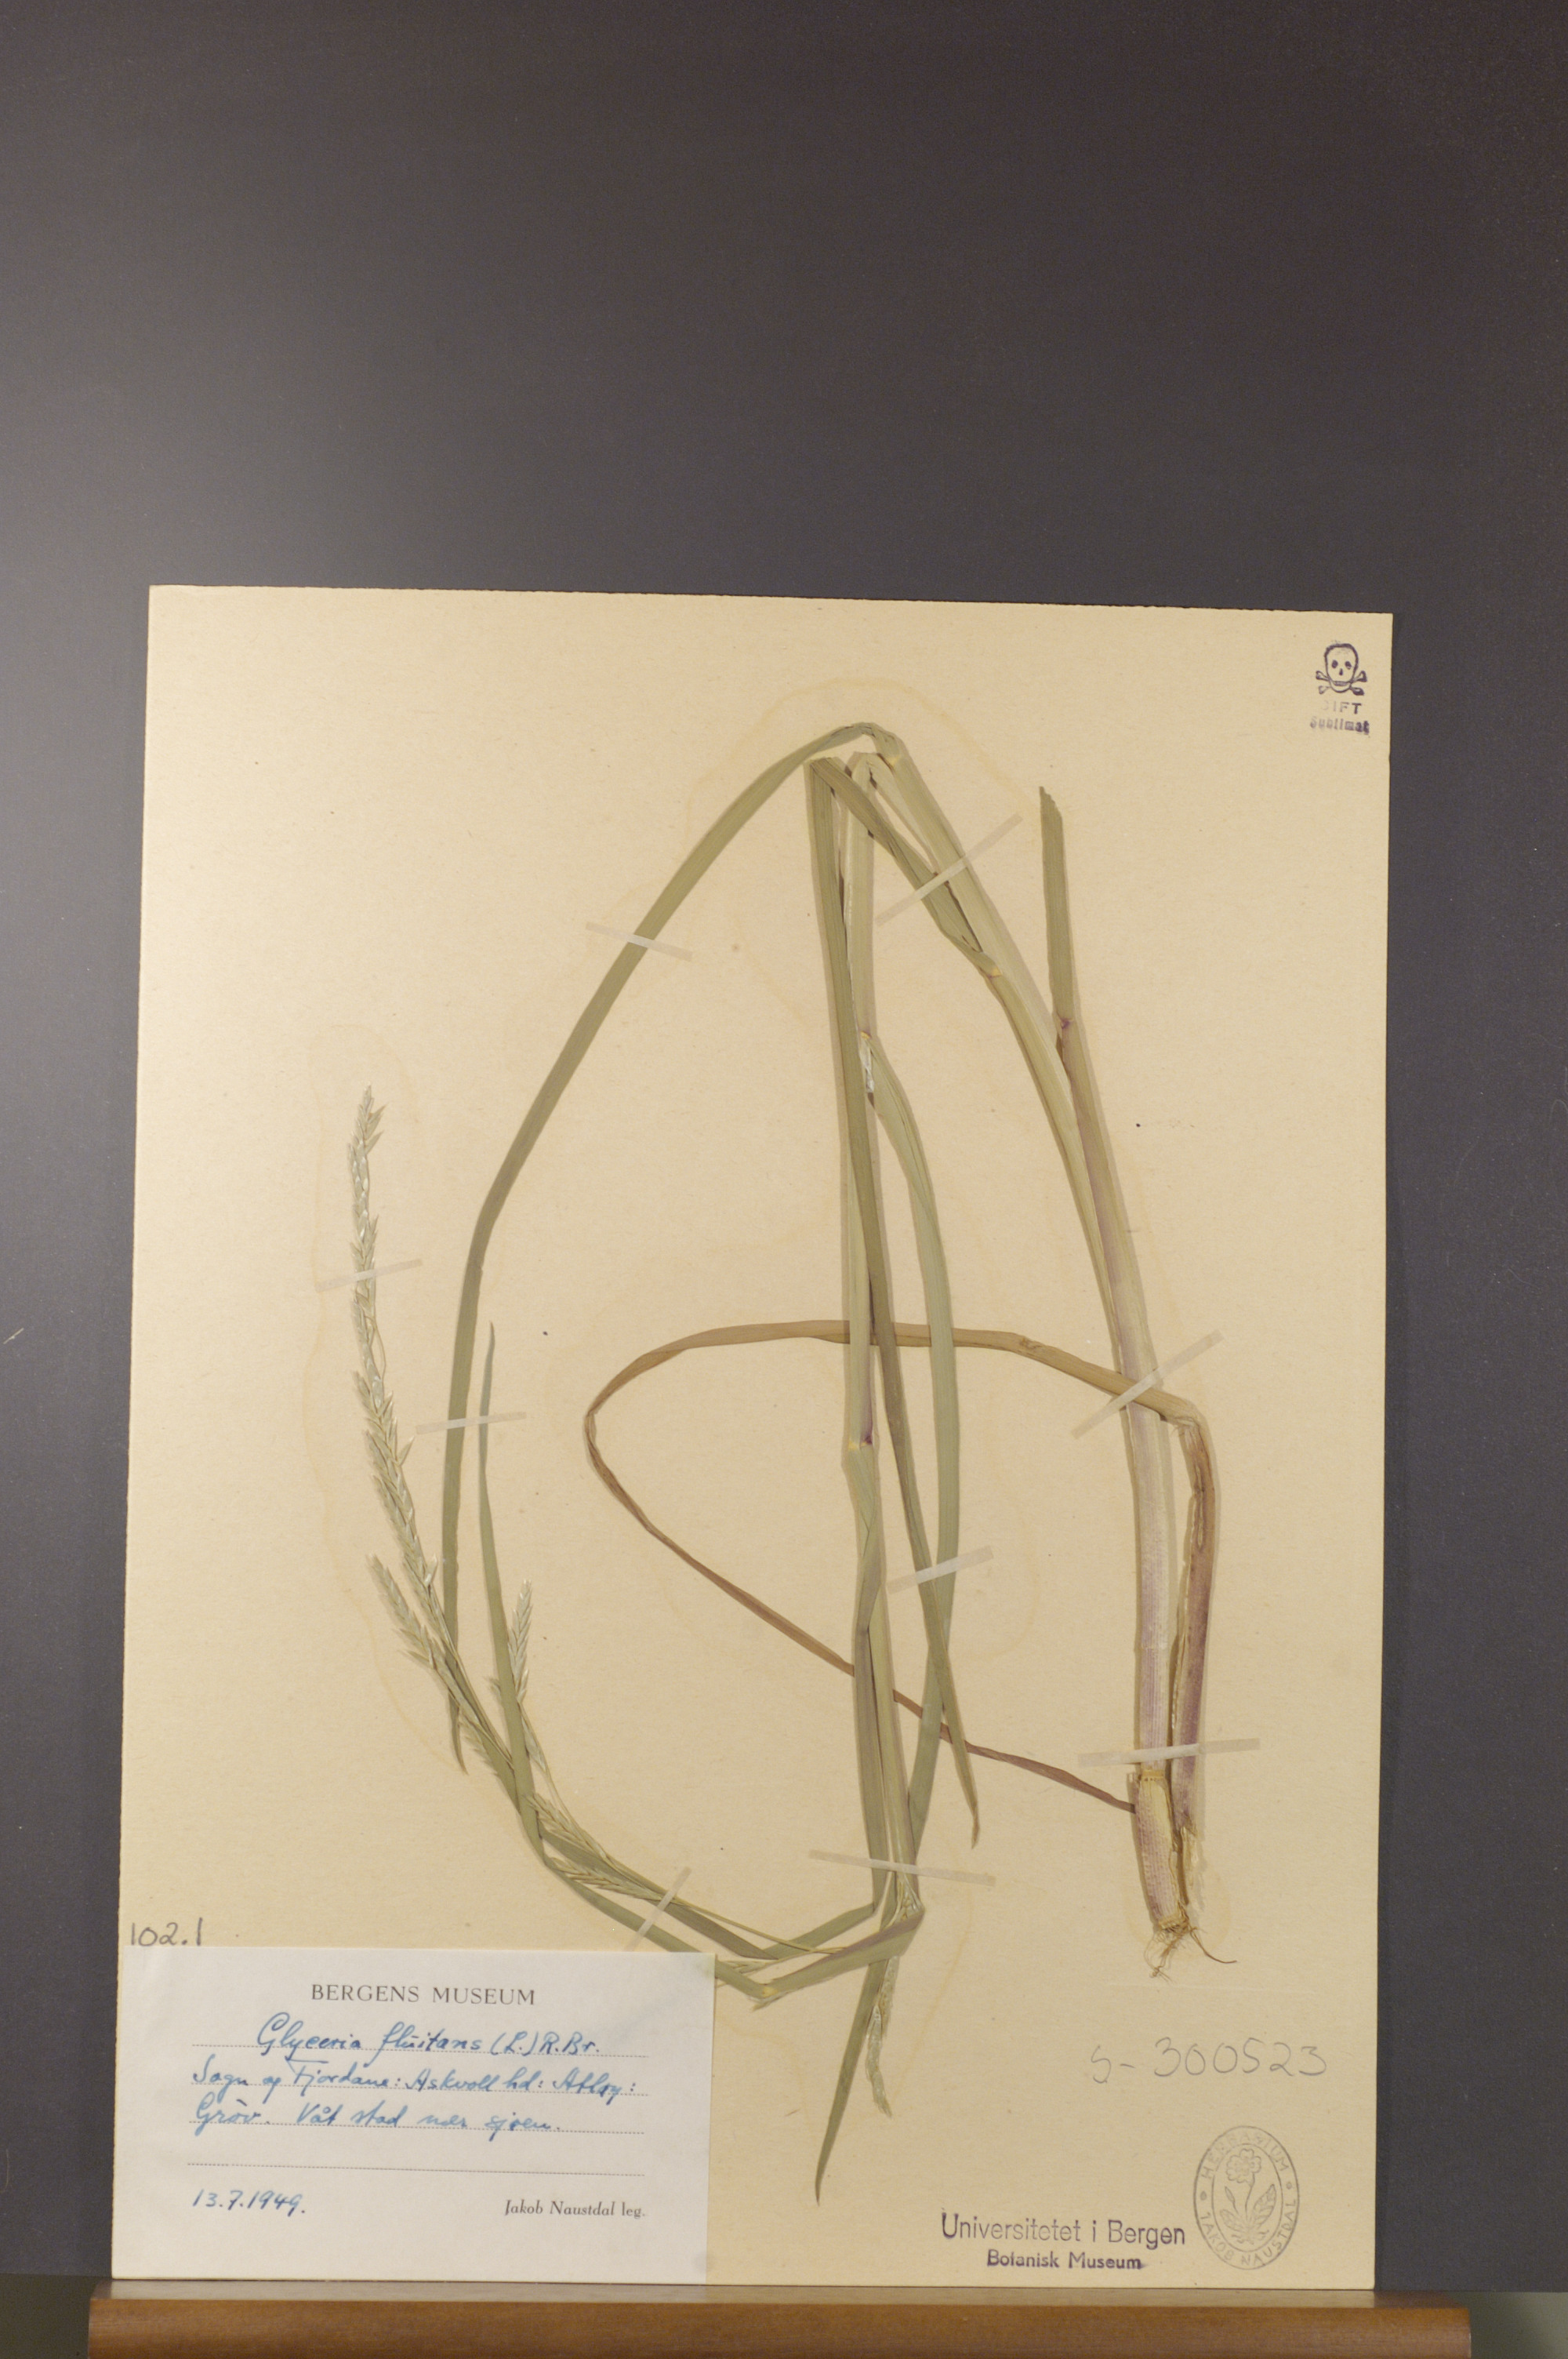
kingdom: Plantae
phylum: Tracheophyta
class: Liliopsida
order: Poales
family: Poaceae
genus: Glyceria
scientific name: Glyceria fluitans
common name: Floating sweet-grass
